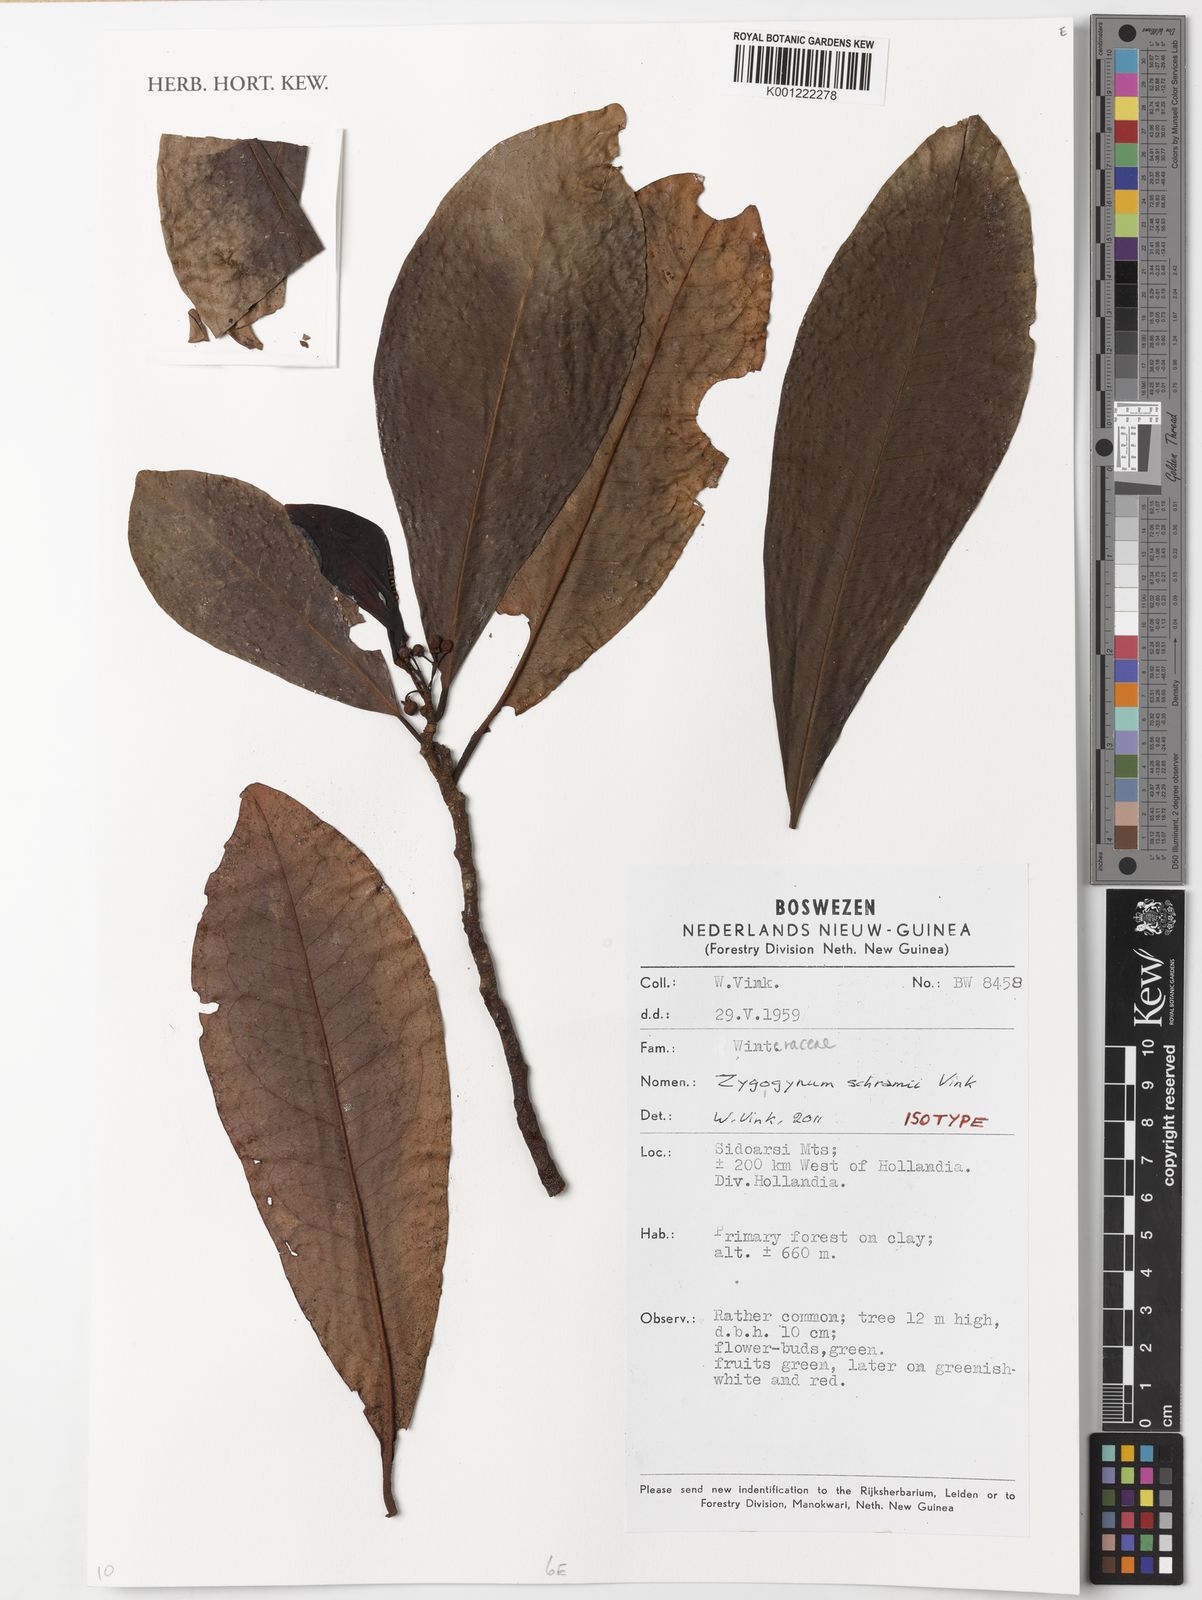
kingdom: Plantae
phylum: Tracheophyta
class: Magnoliopsida
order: Canellales
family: Winteraceae
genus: Zygogynum
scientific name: Zygogynum schramii
